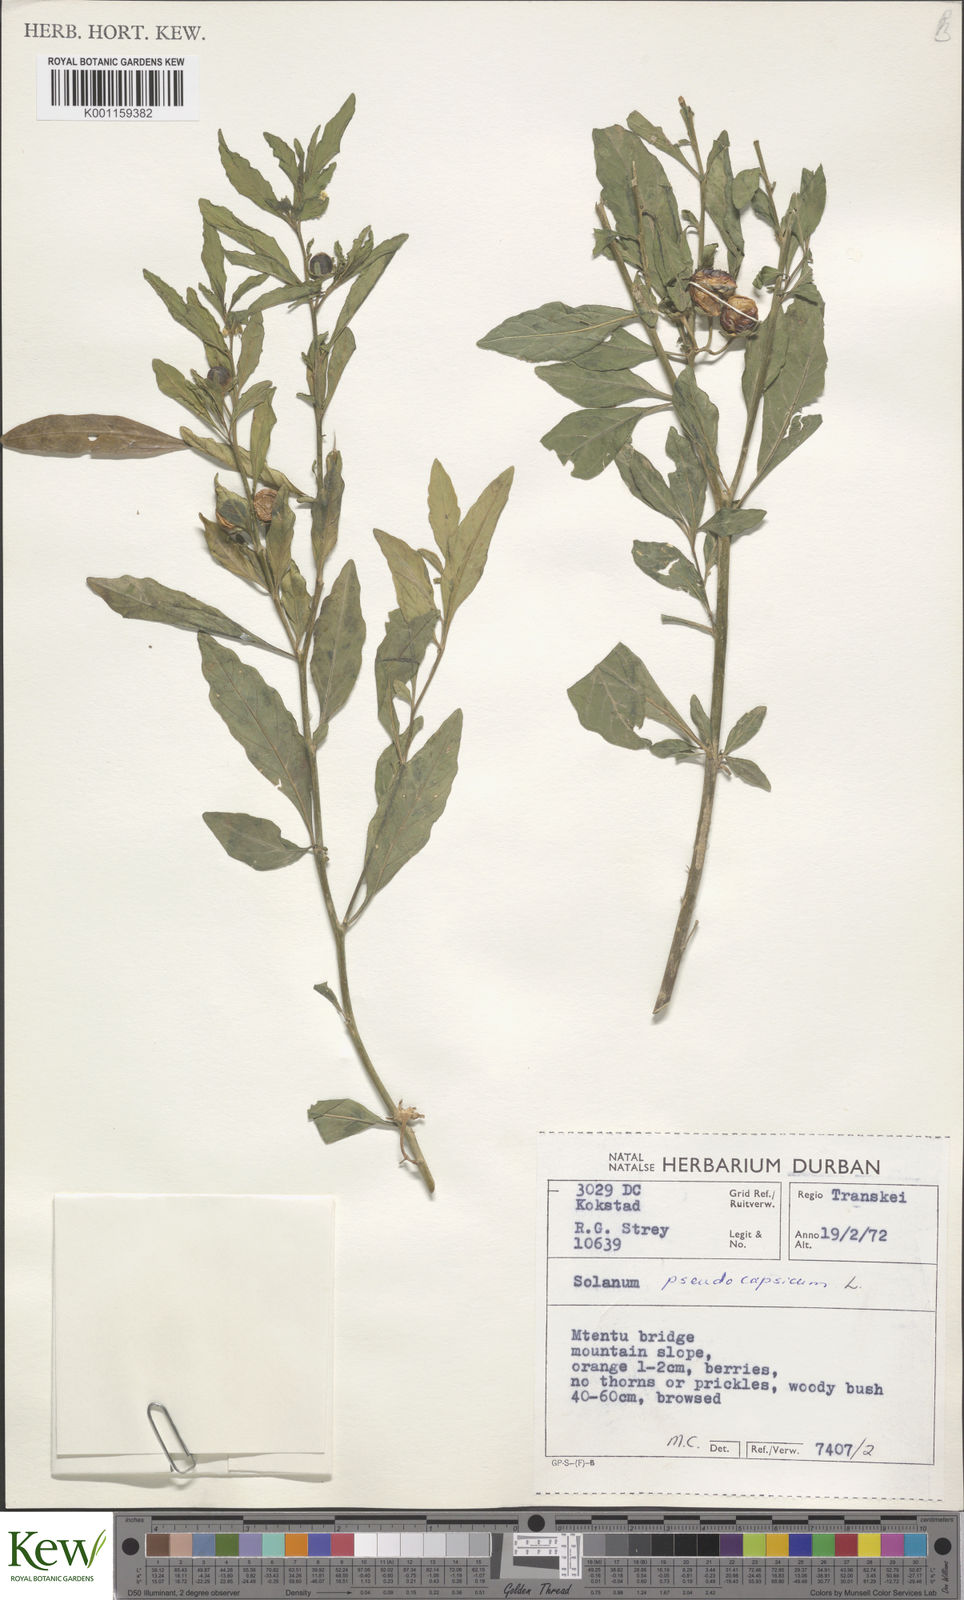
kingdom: Plantae
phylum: Tracheophyta
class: Magnoliopsida
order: Solanales
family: Solanaceae
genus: Solanum
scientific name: Solanum pseudocapsicum
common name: Jerusalem cherry
